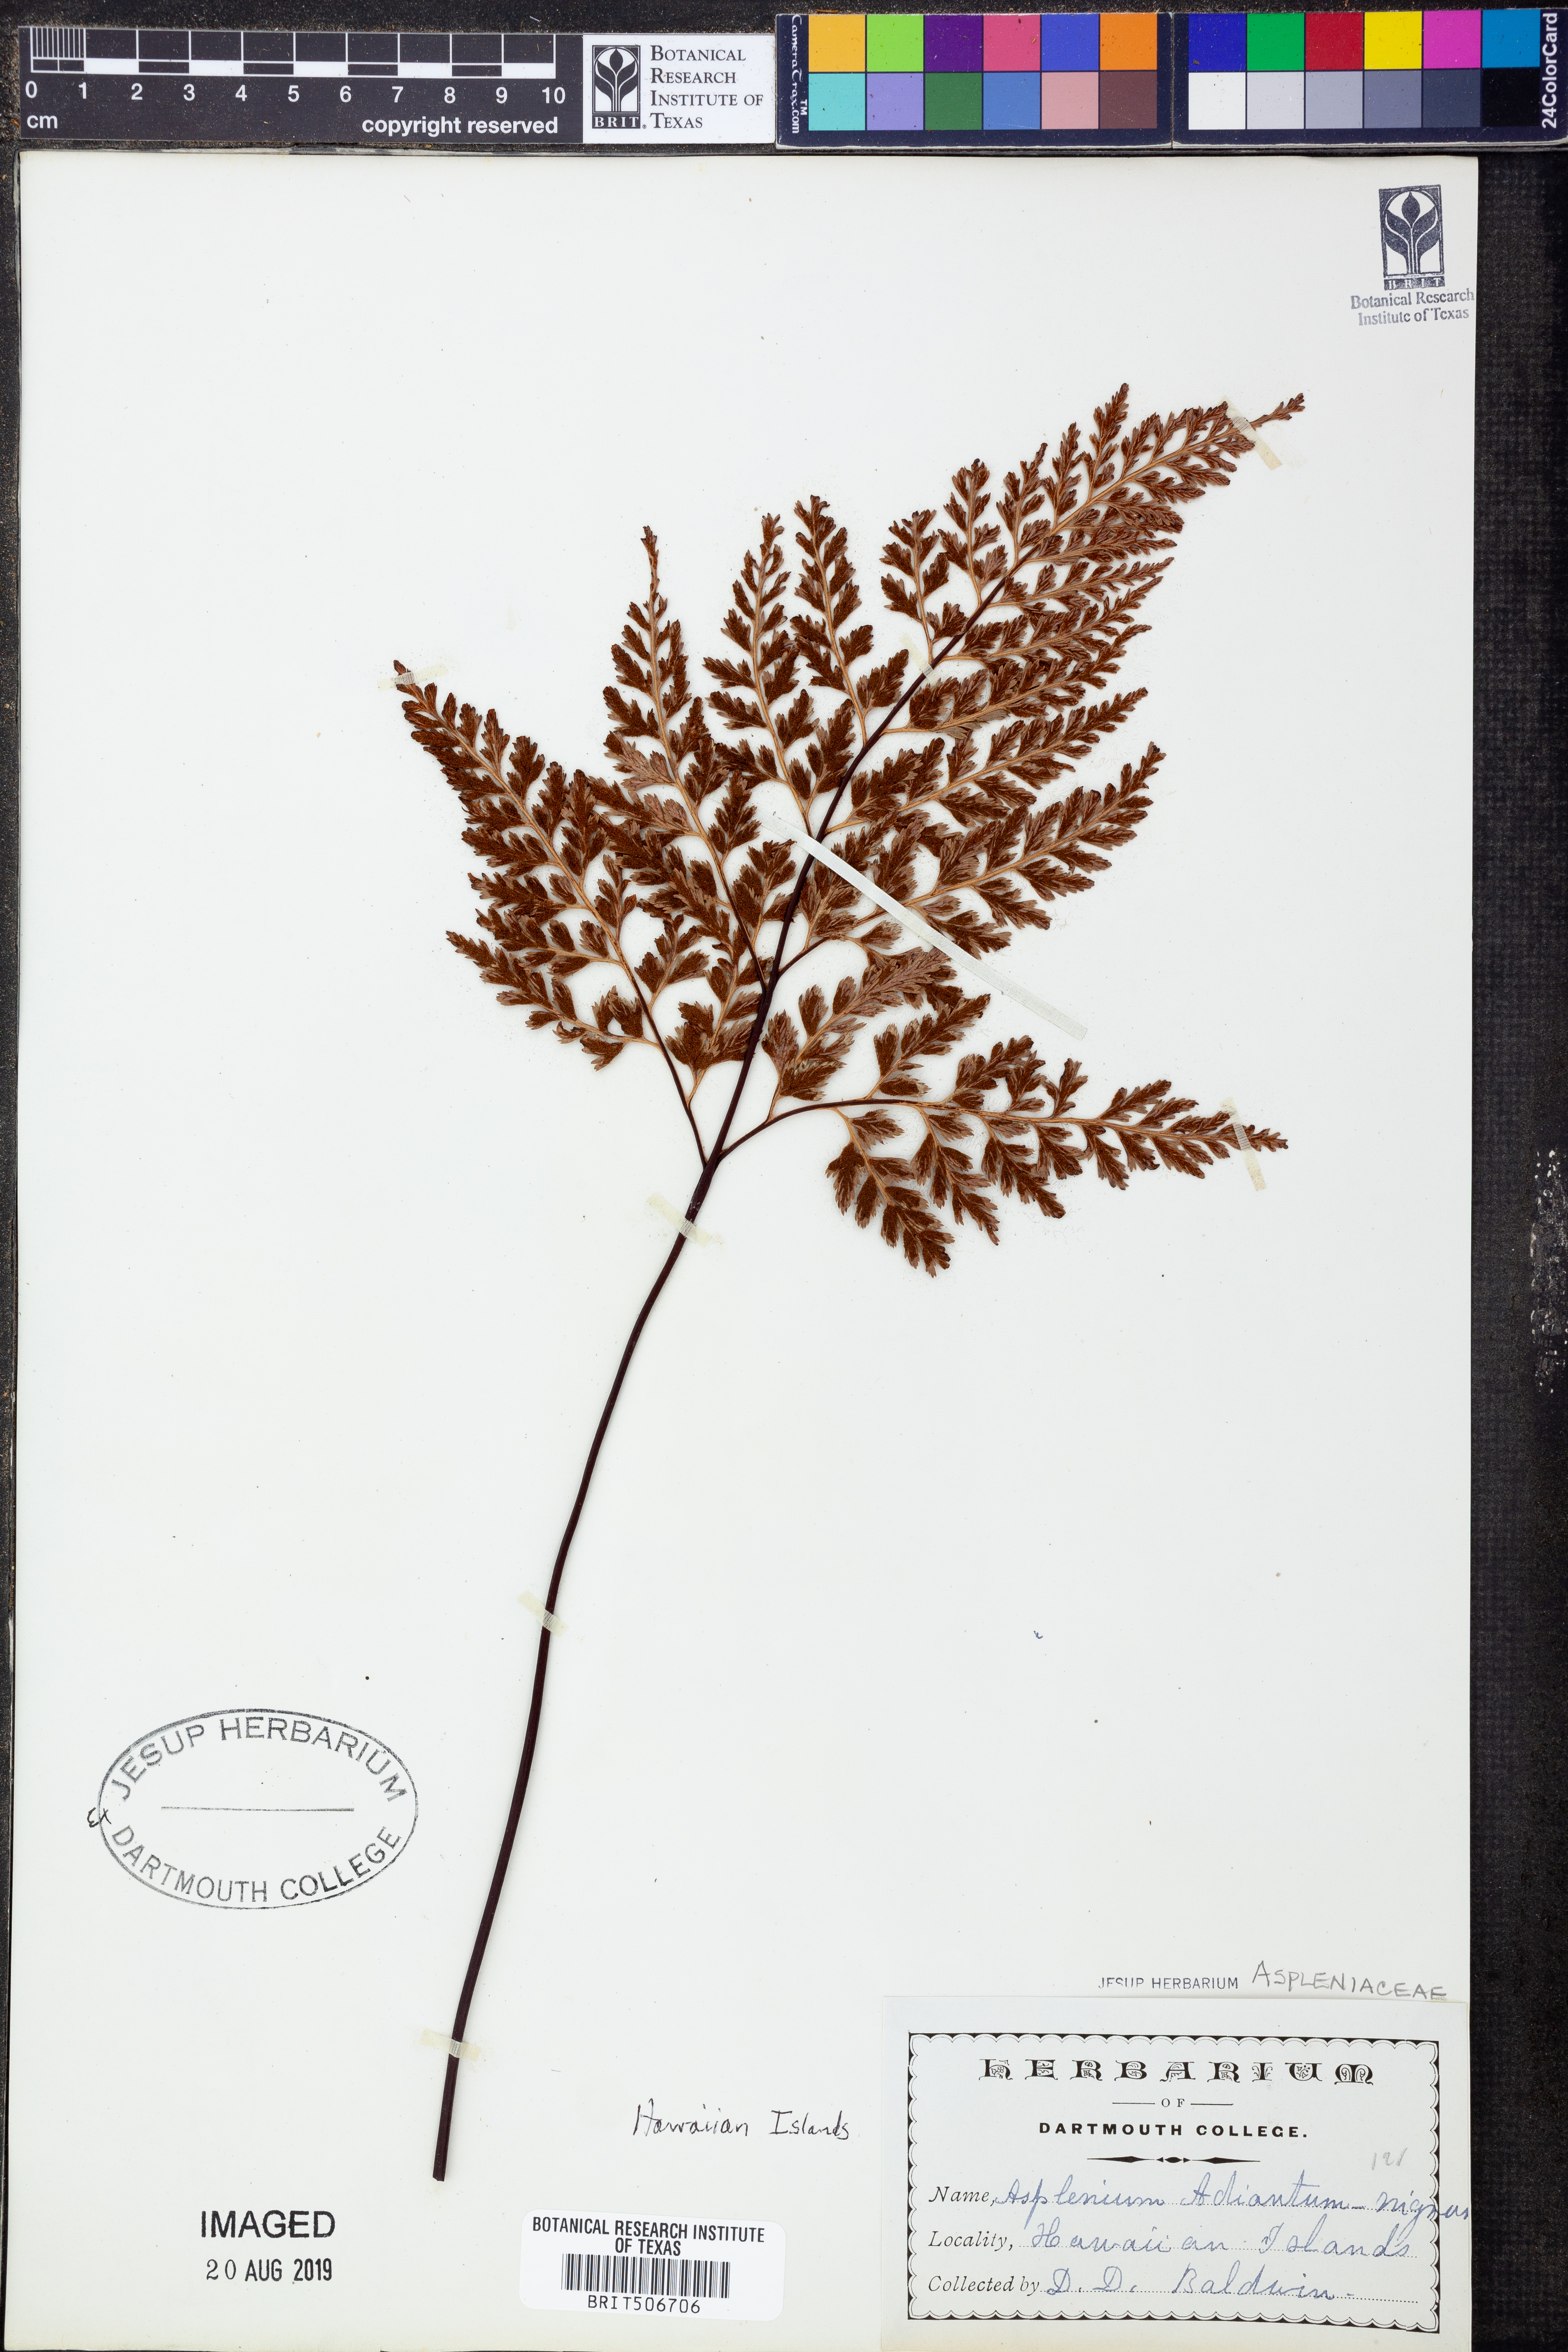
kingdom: Plantae
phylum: Tracheophyta
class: Polypodiopsida
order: Polypodiales
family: Aspleniaceae
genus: Asplenium
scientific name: Asplenium adiantum-nigrum
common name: Black spleenwort
